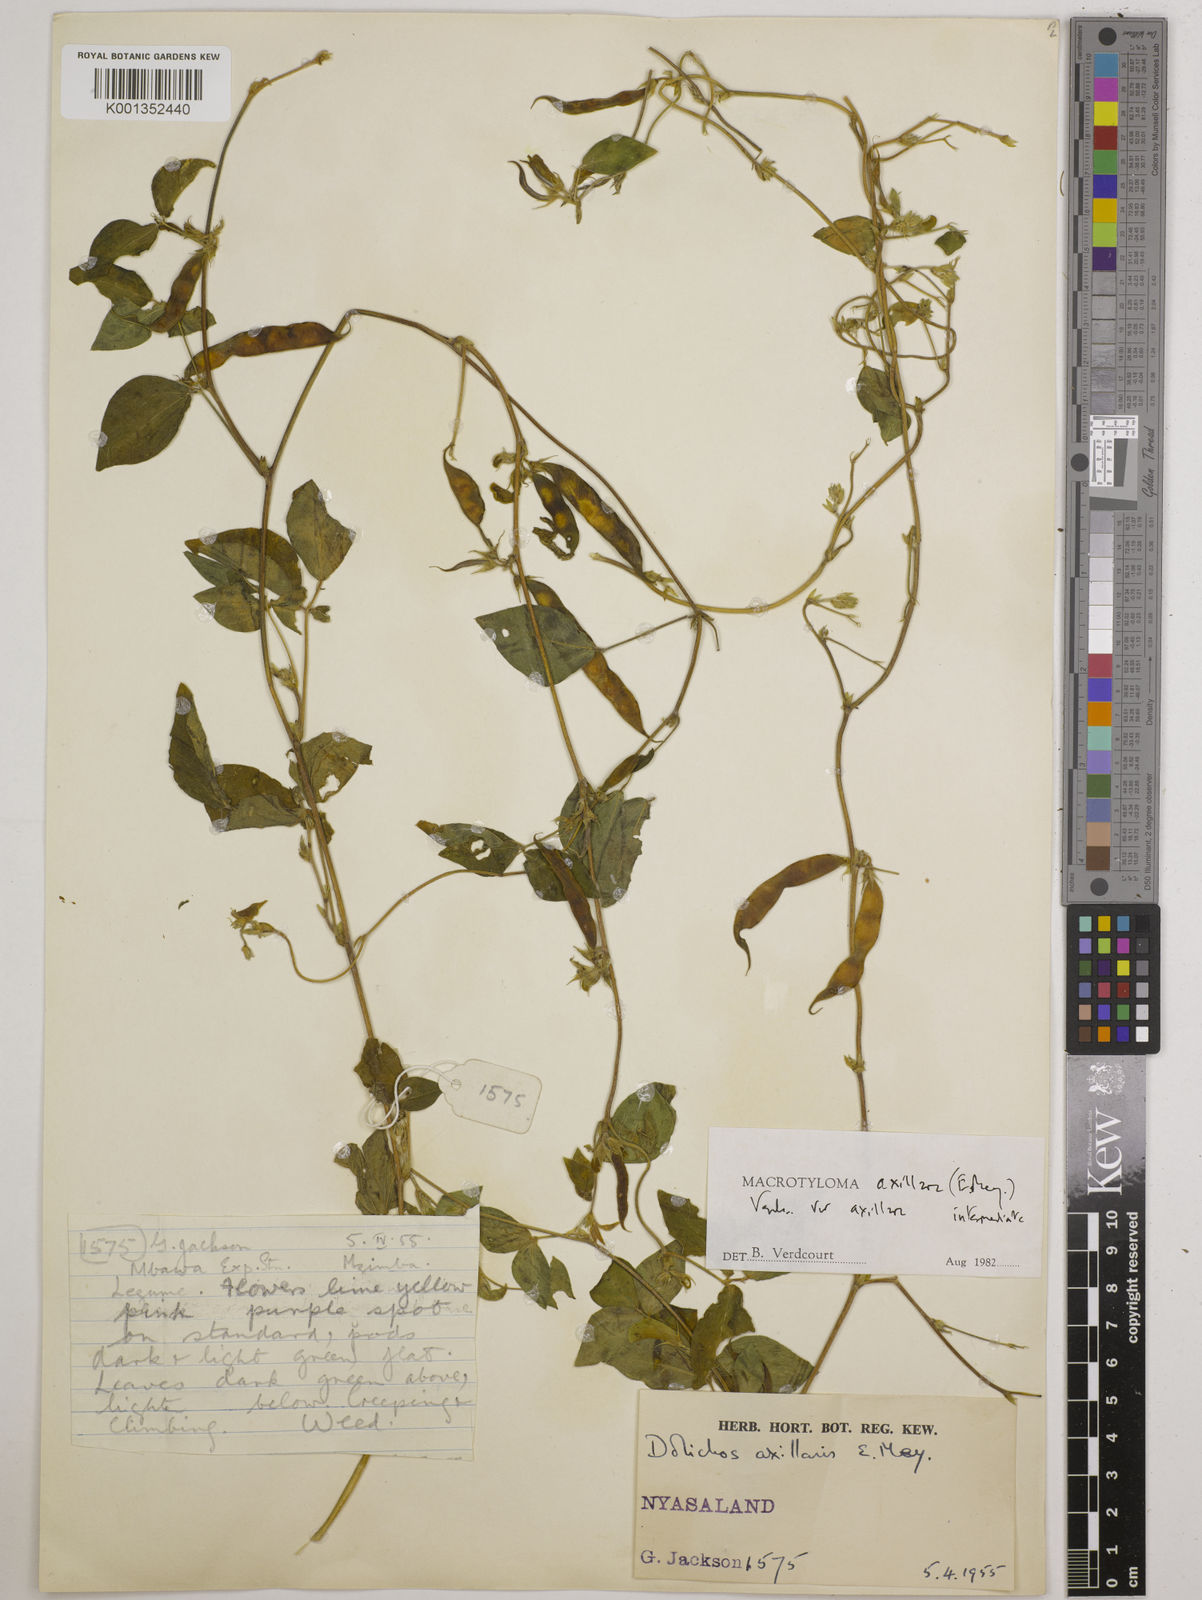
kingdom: Plantae
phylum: Tracheophyta
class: Magnoliopsida
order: Fabales
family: Fabaceae
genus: Macrotyloma
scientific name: Macrotyloma axillare
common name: Perennial horsegram
